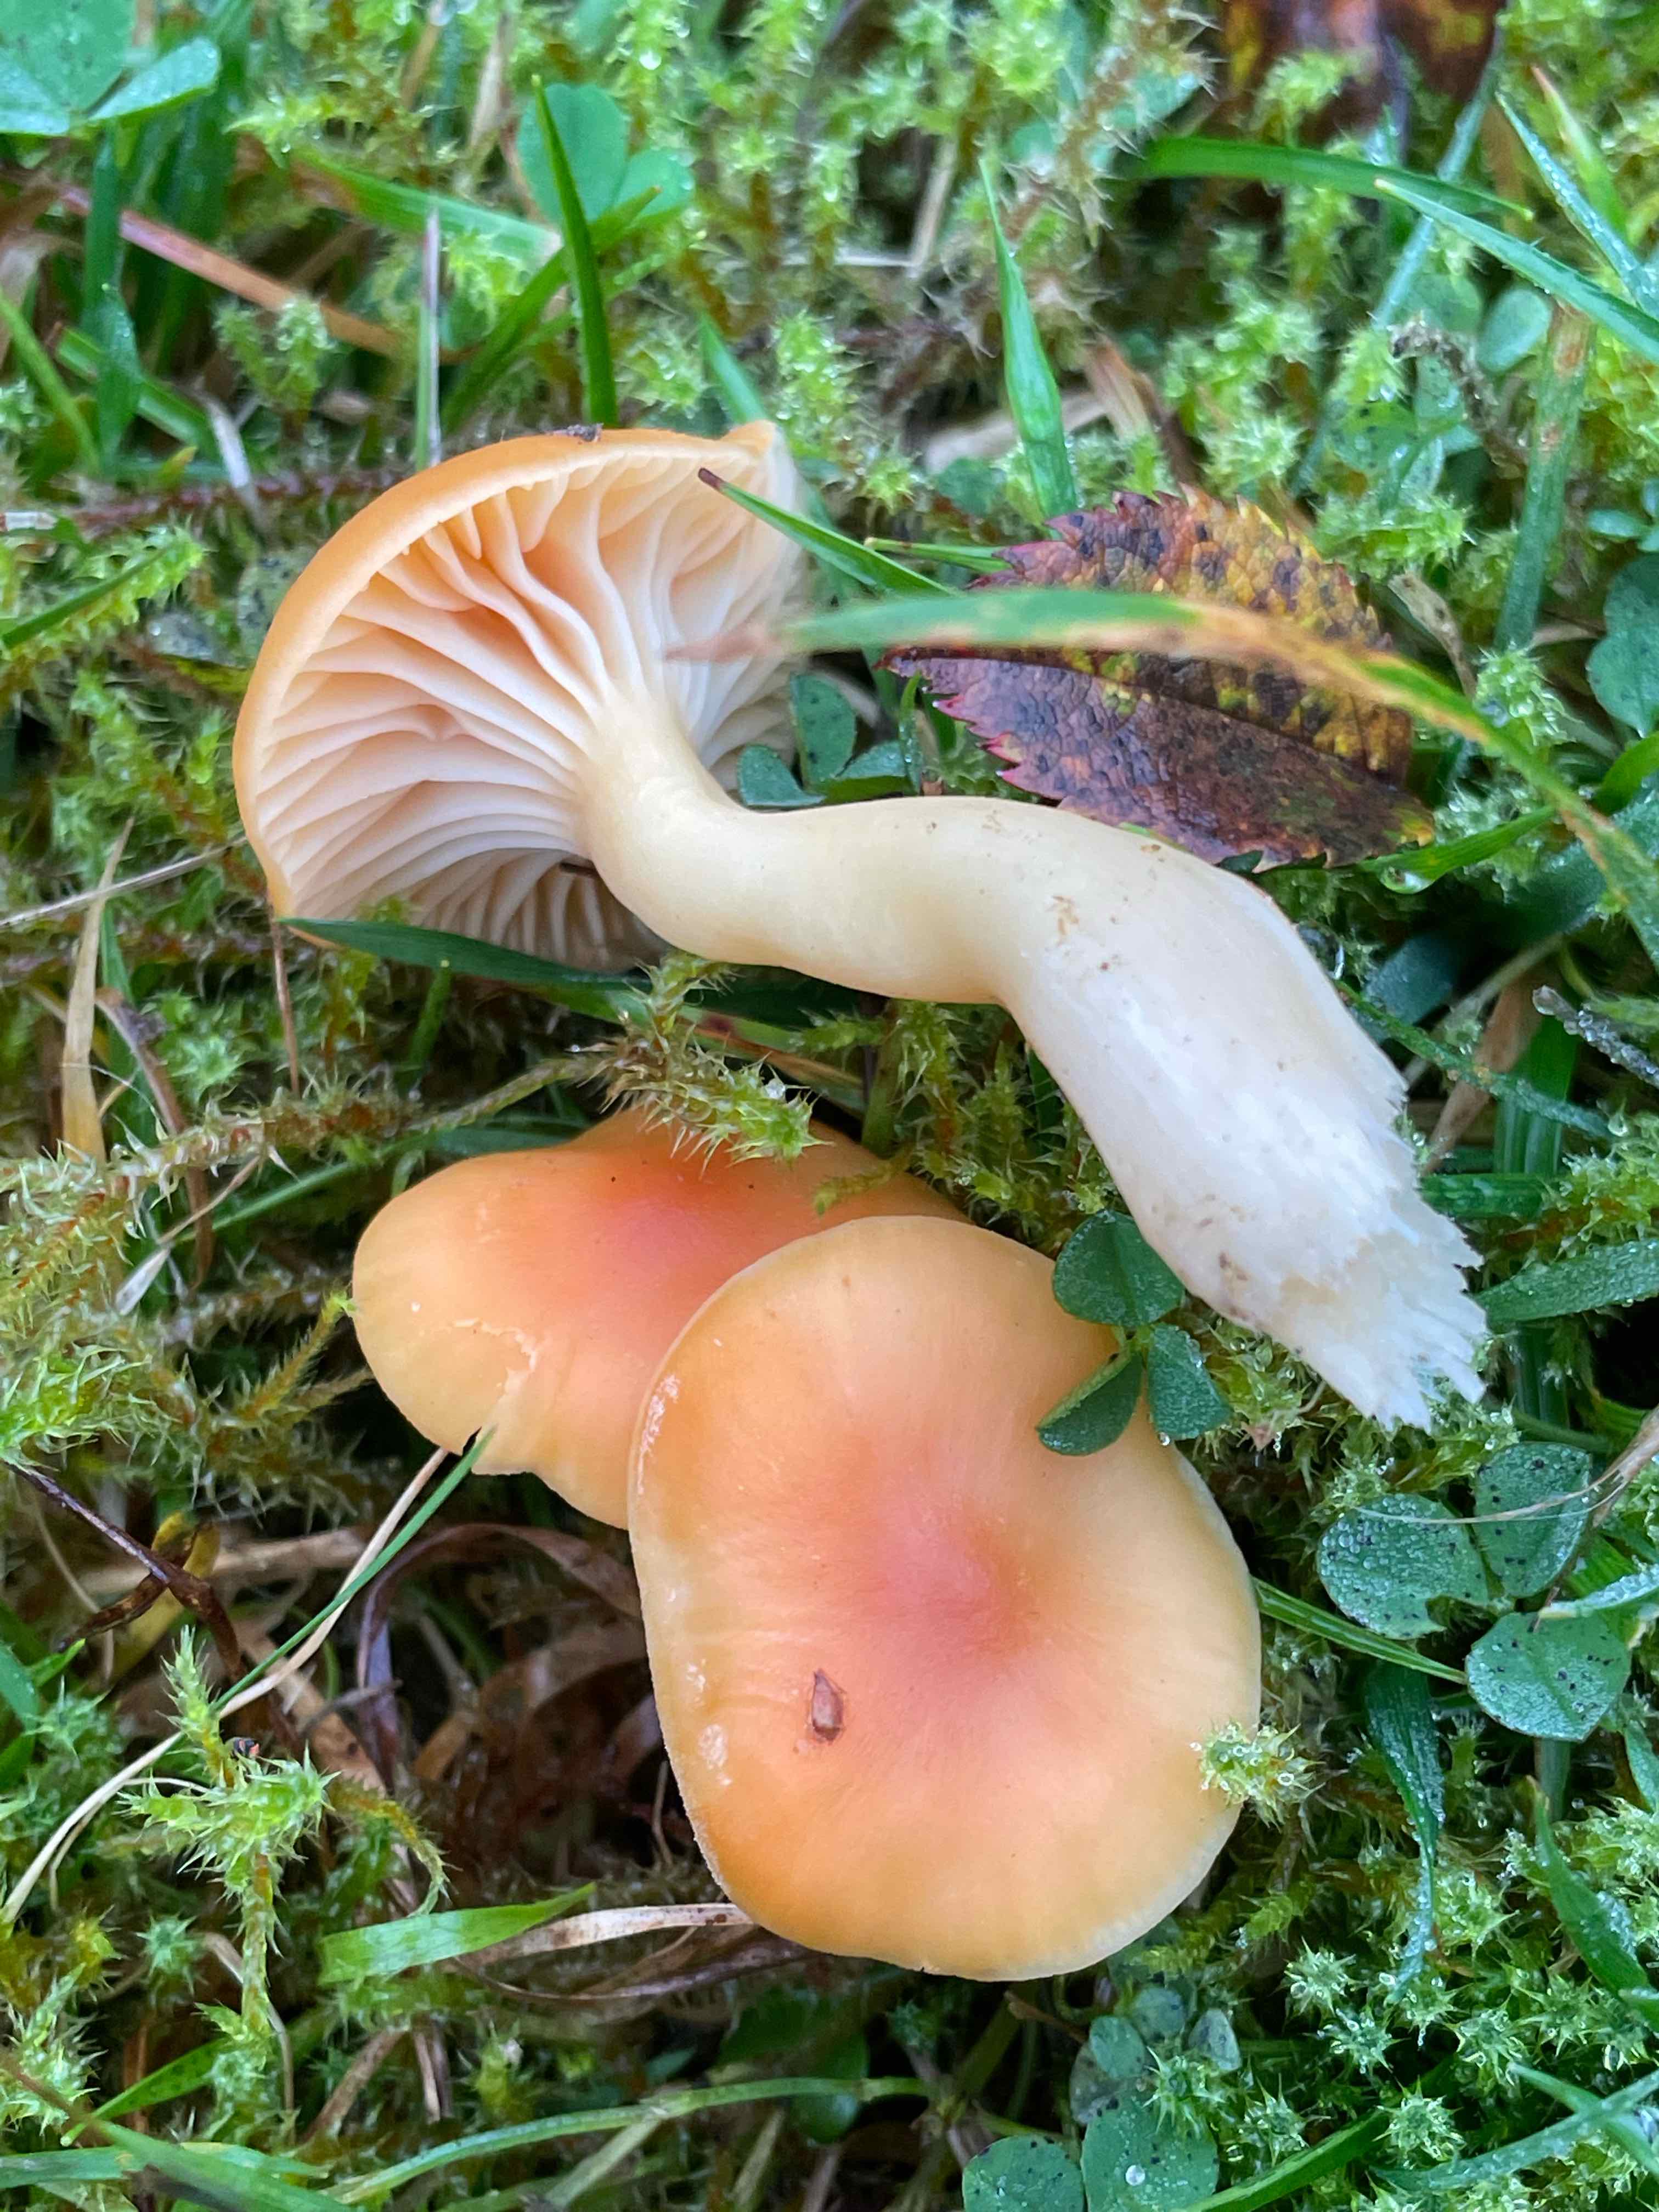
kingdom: Fungi
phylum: Basidiomycota
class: Agaricomycetes
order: Agaricales
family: Hygrophoraceae
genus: Cuphophyllus
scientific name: Cuphophyllus pratensis
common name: eng-vokshat
